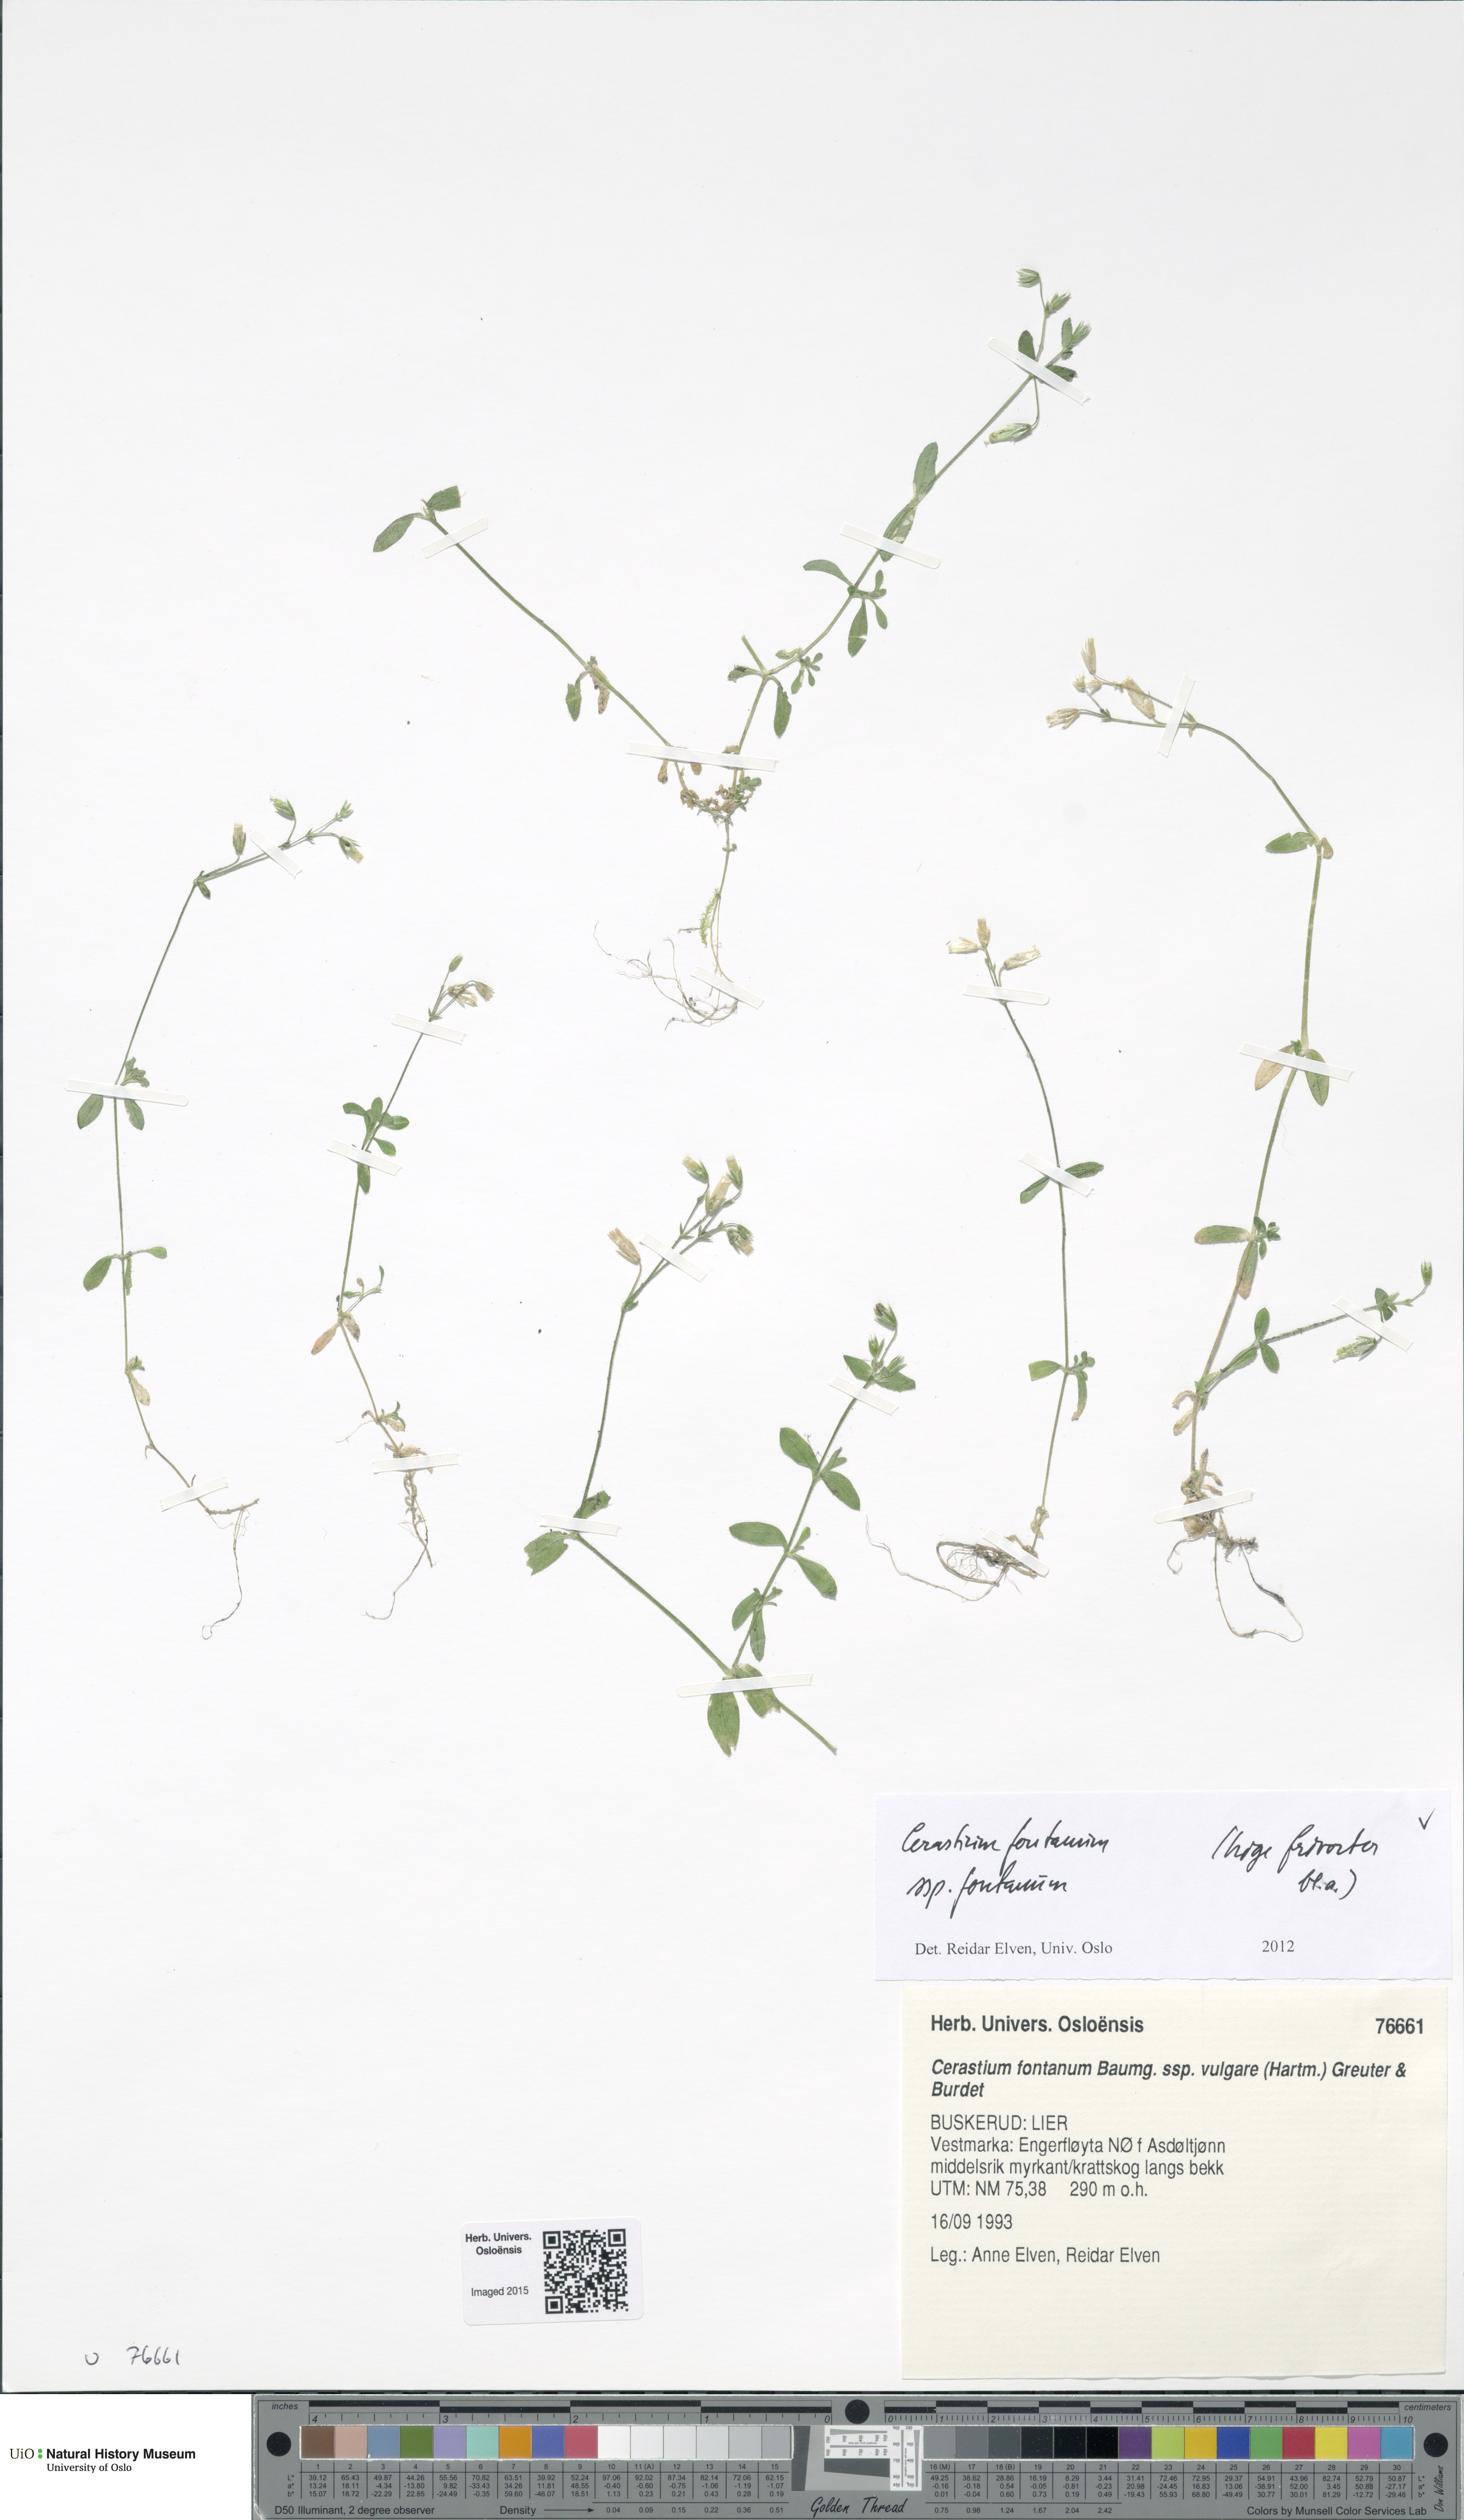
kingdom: Plantae
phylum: Tracheophyta
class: Magnoliopsida
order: Caryophyllales
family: Caryophyllaceae
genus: Cerastium
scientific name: Cerastium fontanum
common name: Common mouse-ear
